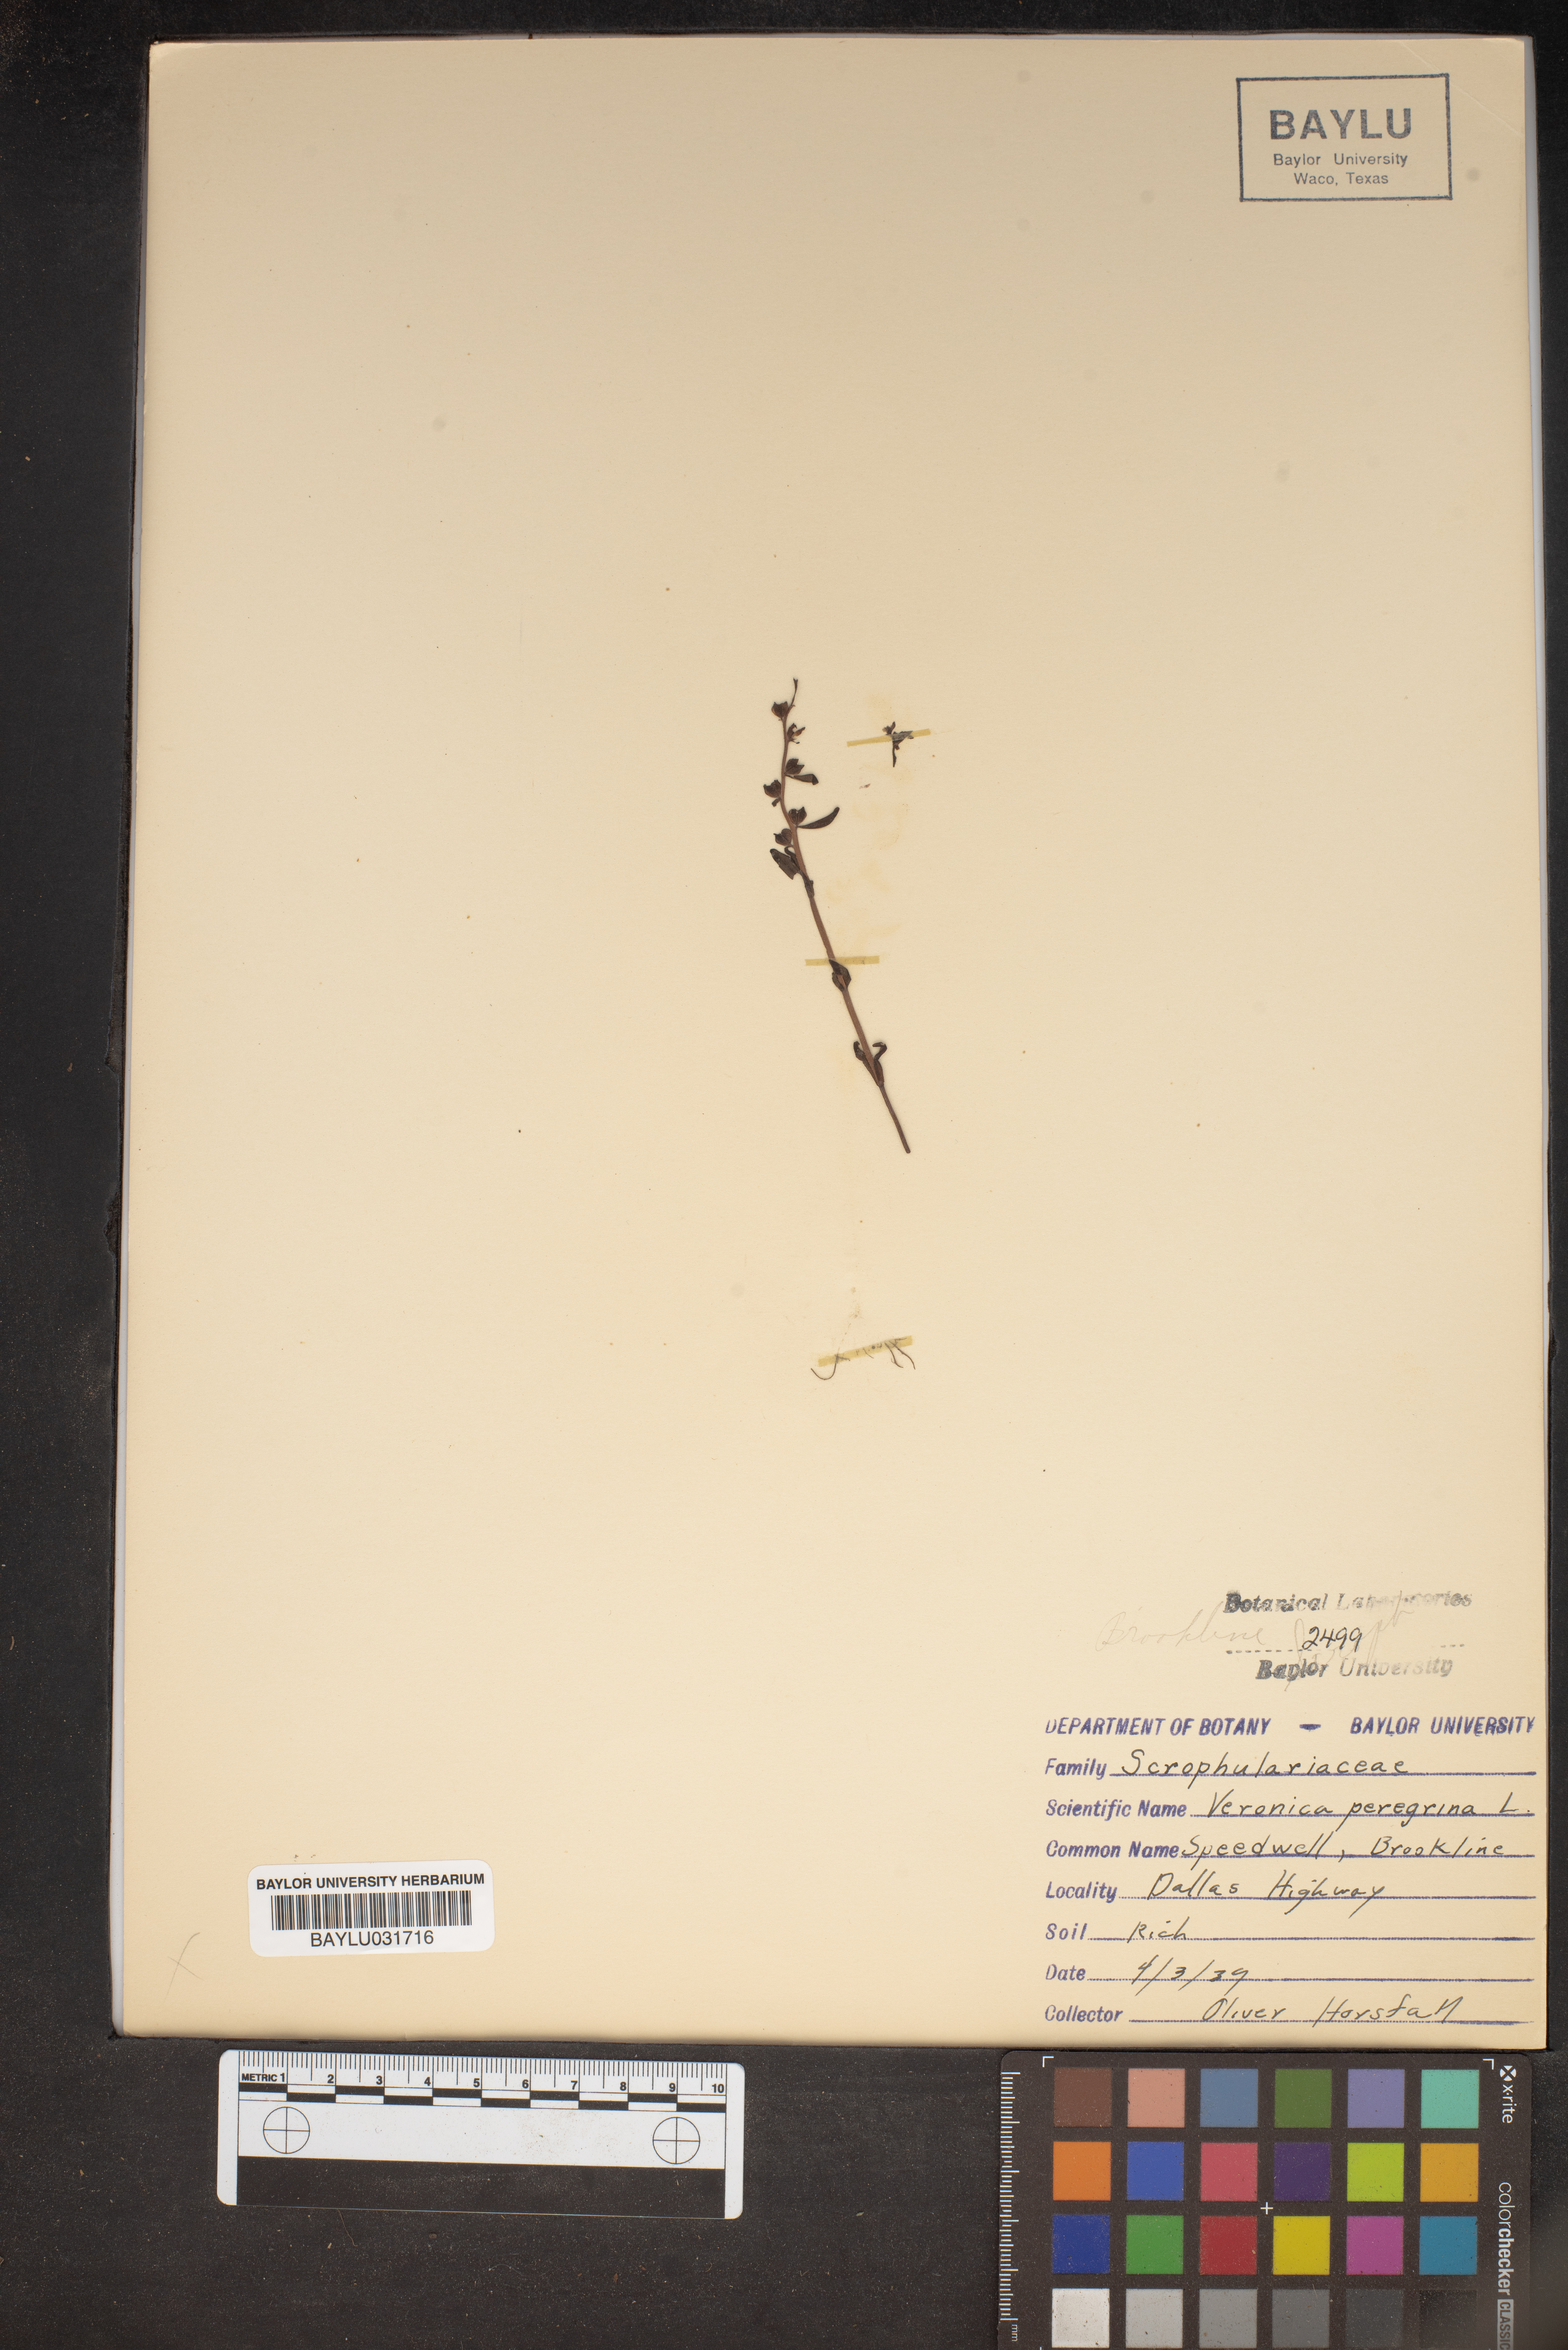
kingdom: Plantae
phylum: Tracheophyta
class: Magnoliopsida
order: Lamiales
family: Plantaginaceae
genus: Veronica
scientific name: Veronica peregrina
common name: Neckweed
